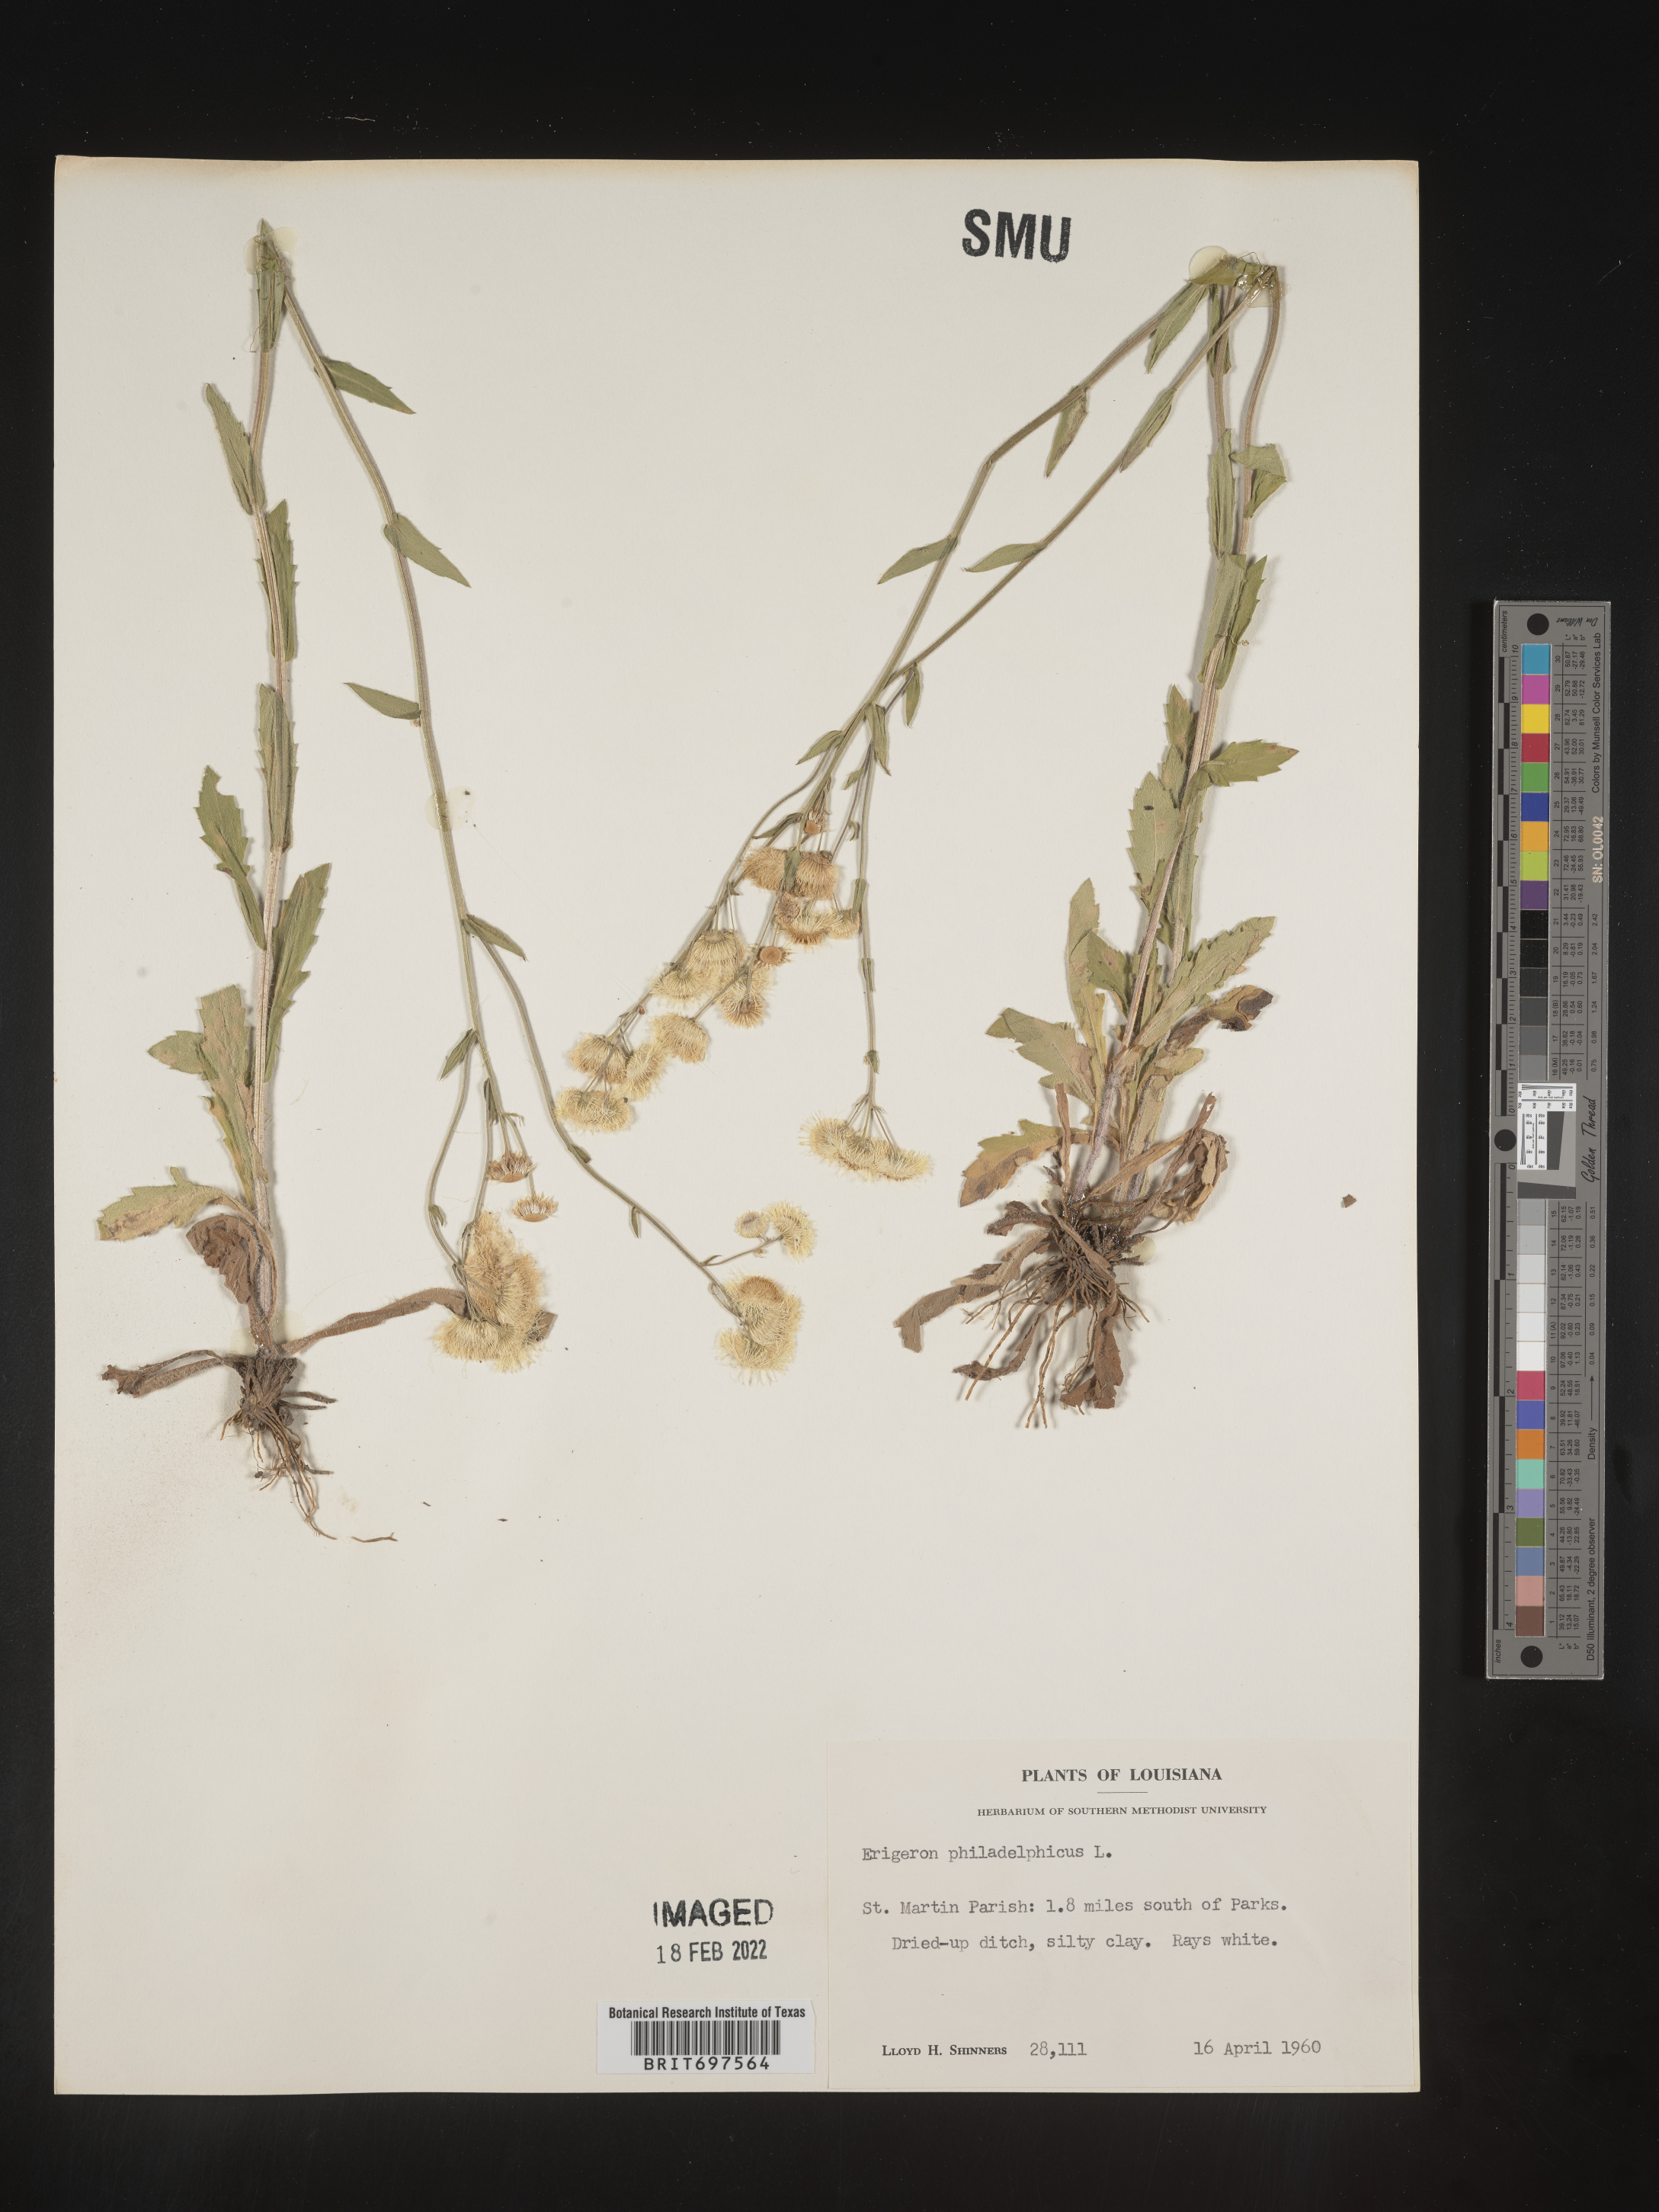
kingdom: Plantae
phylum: Tracheophyta
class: Magnoliopsida
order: Asterales
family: Asteraceae
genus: Erigeron
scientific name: Erigeron philadelphicus
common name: Robin's-plantain
